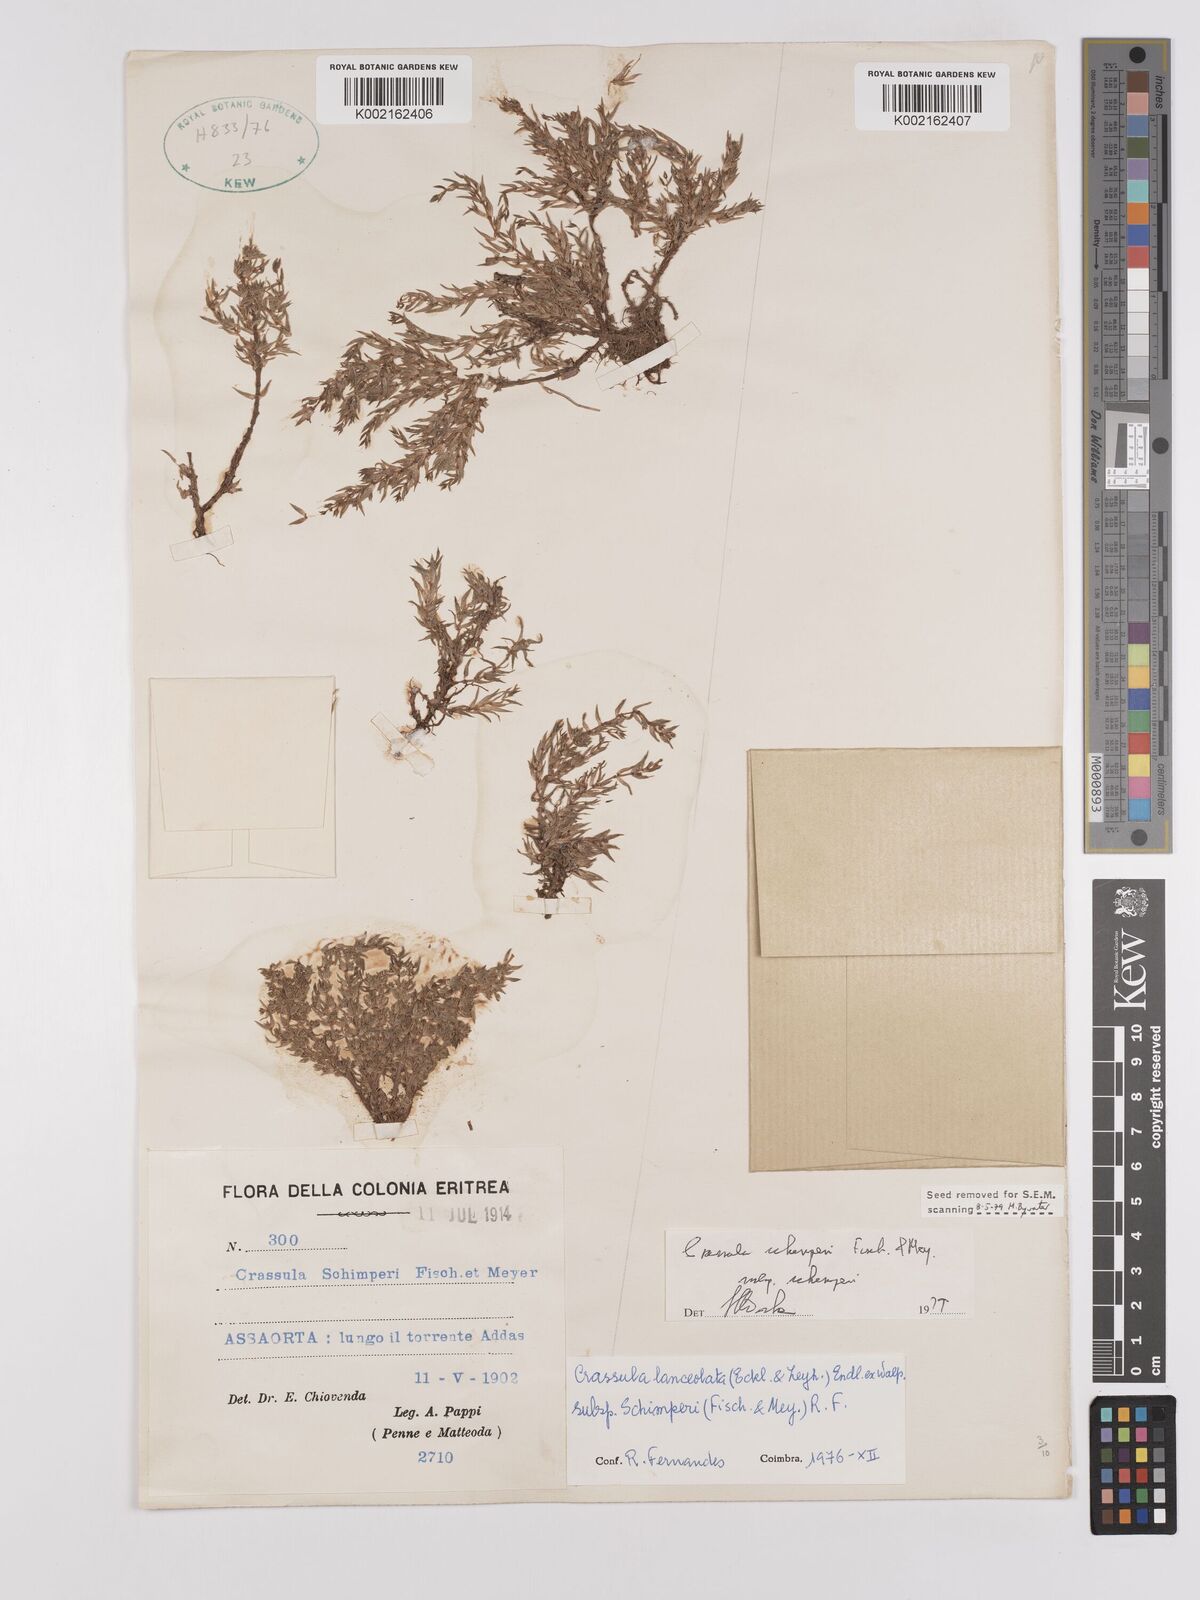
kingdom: Plantae
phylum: Tracheophyta
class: Magnoliopsida
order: Saxifragales
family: Crassulaceae
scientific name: Crassulaceae
